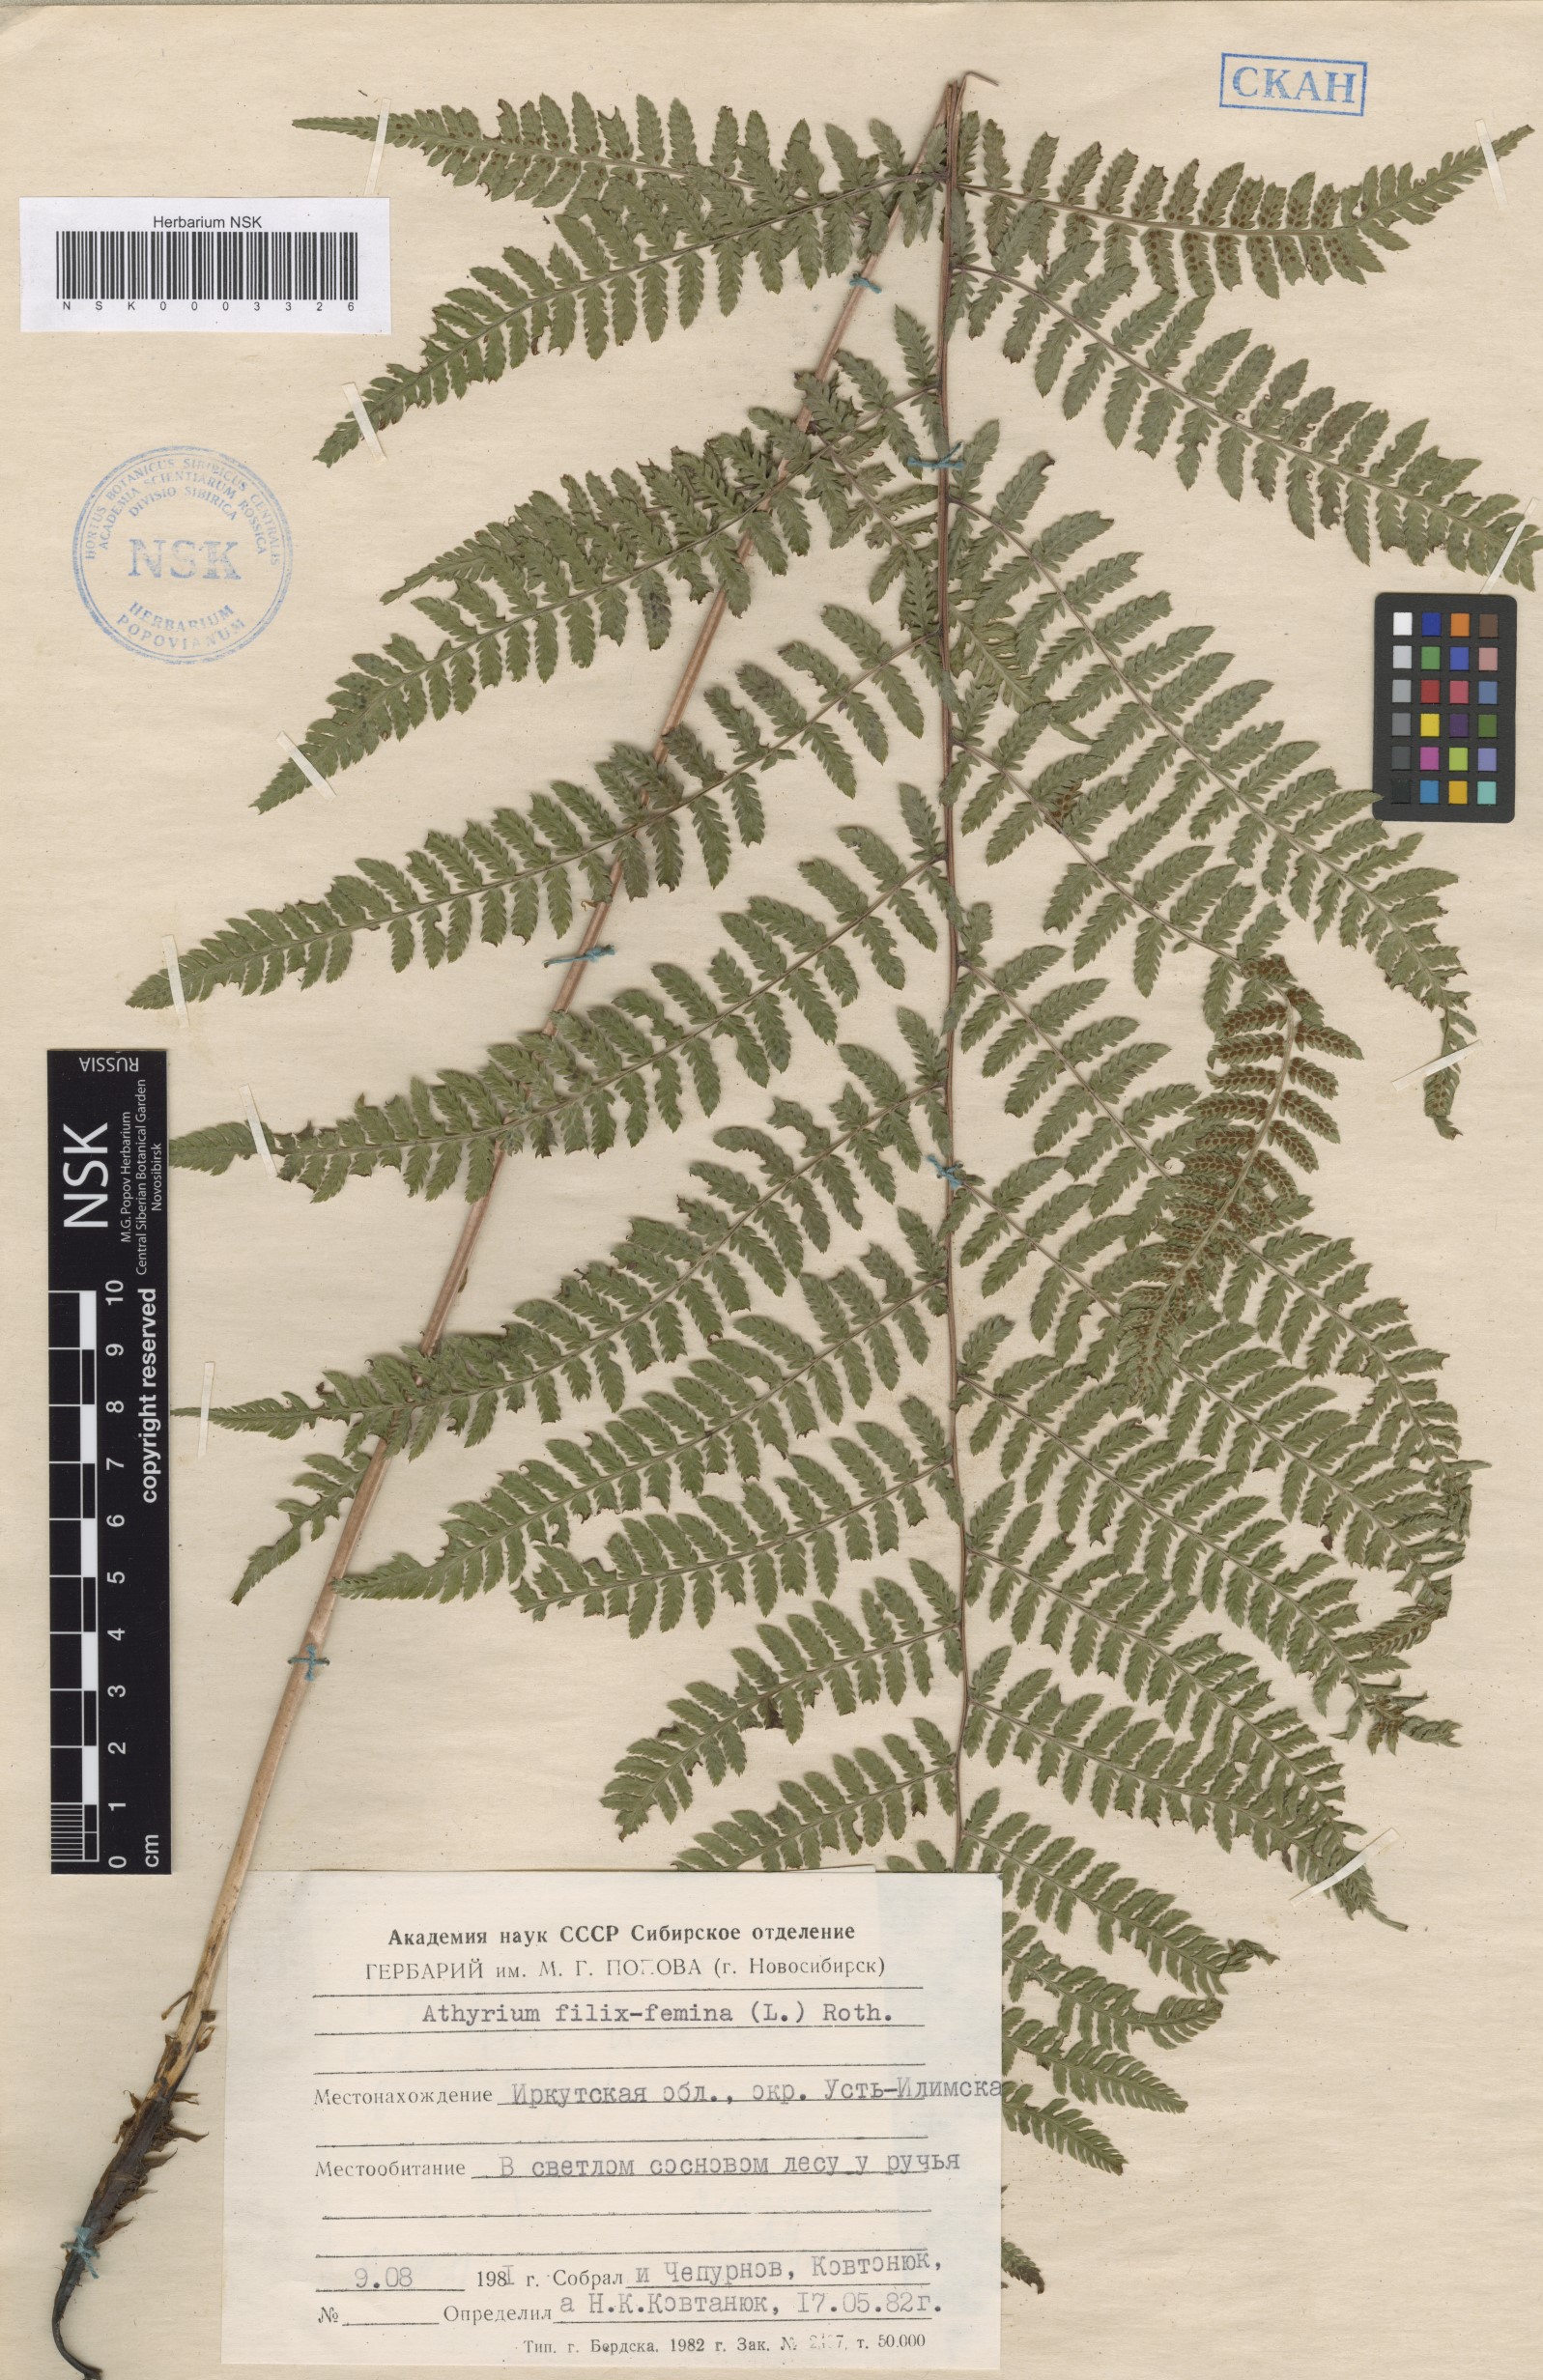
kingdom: Plantae
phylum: Tracheophyta
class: Polypodiopsida
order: Polypodiales
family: Athyriaceae
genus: Athyrium
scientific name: Athyrium filix-femina
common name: Lady fern
